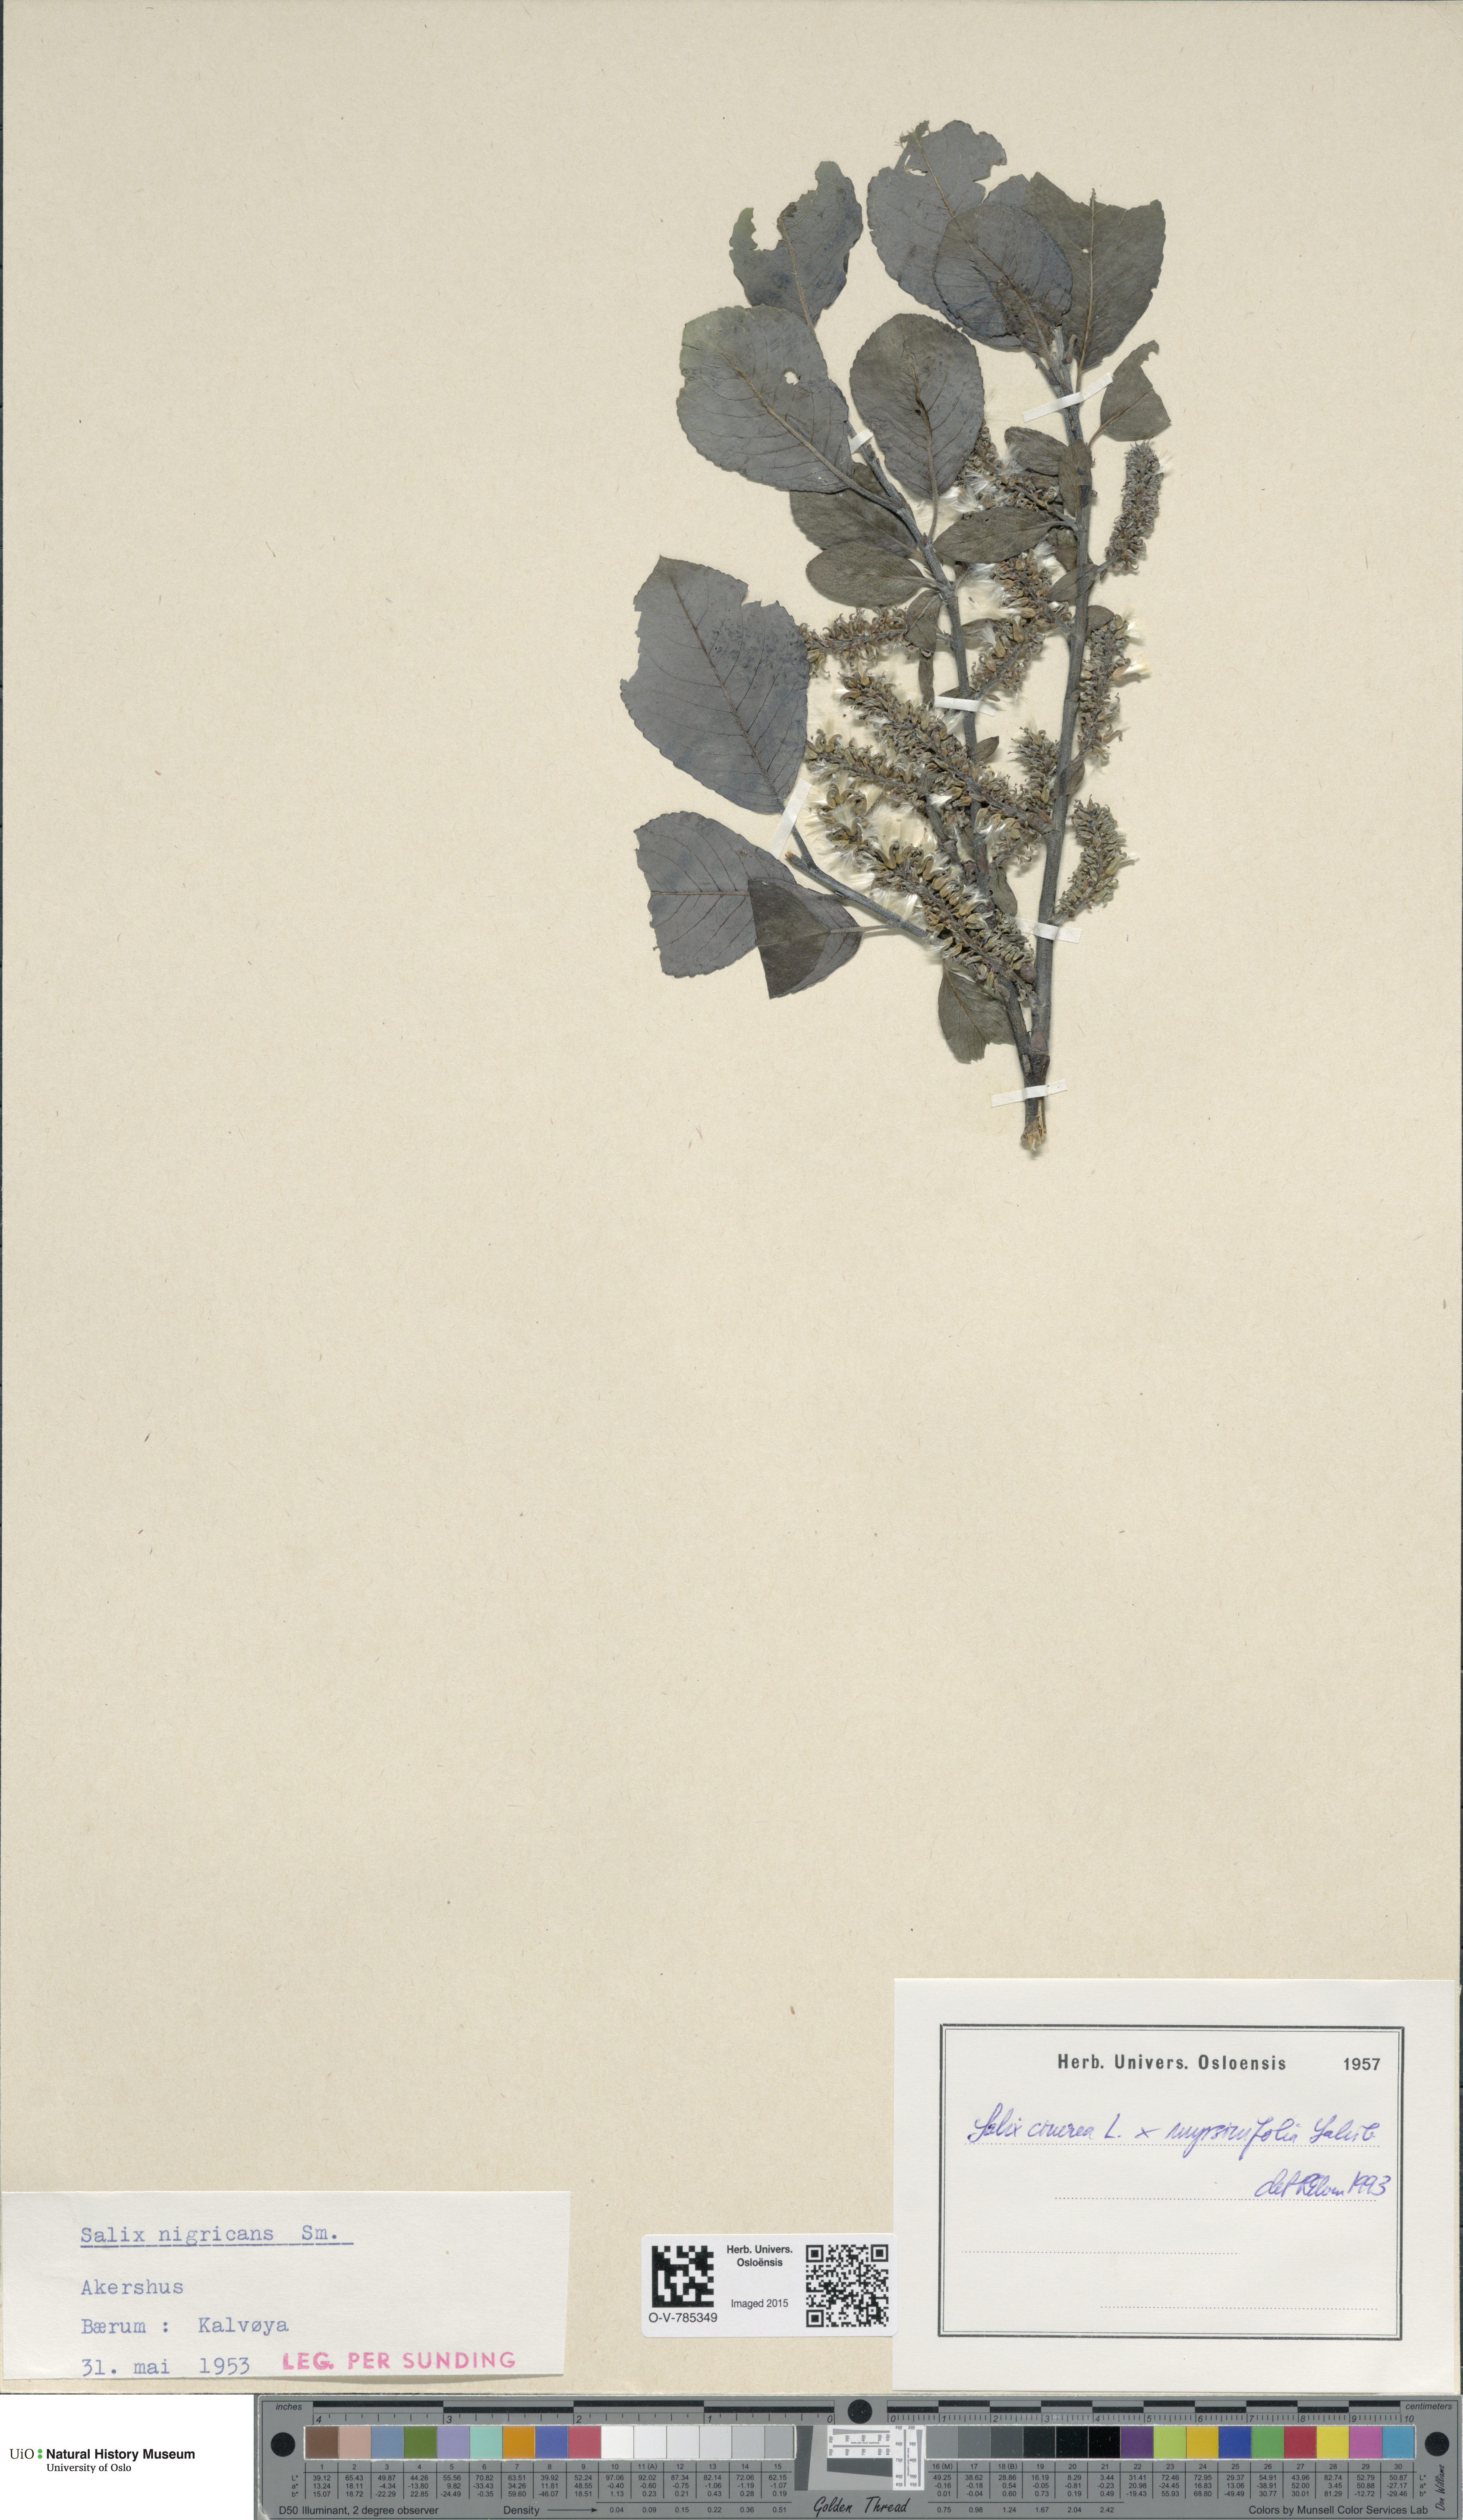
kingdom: Plantae
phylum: Tracheophyta
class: Magnoliopsida
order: Malpighiales
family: Salicaceae
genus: Salix
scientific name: Salix
